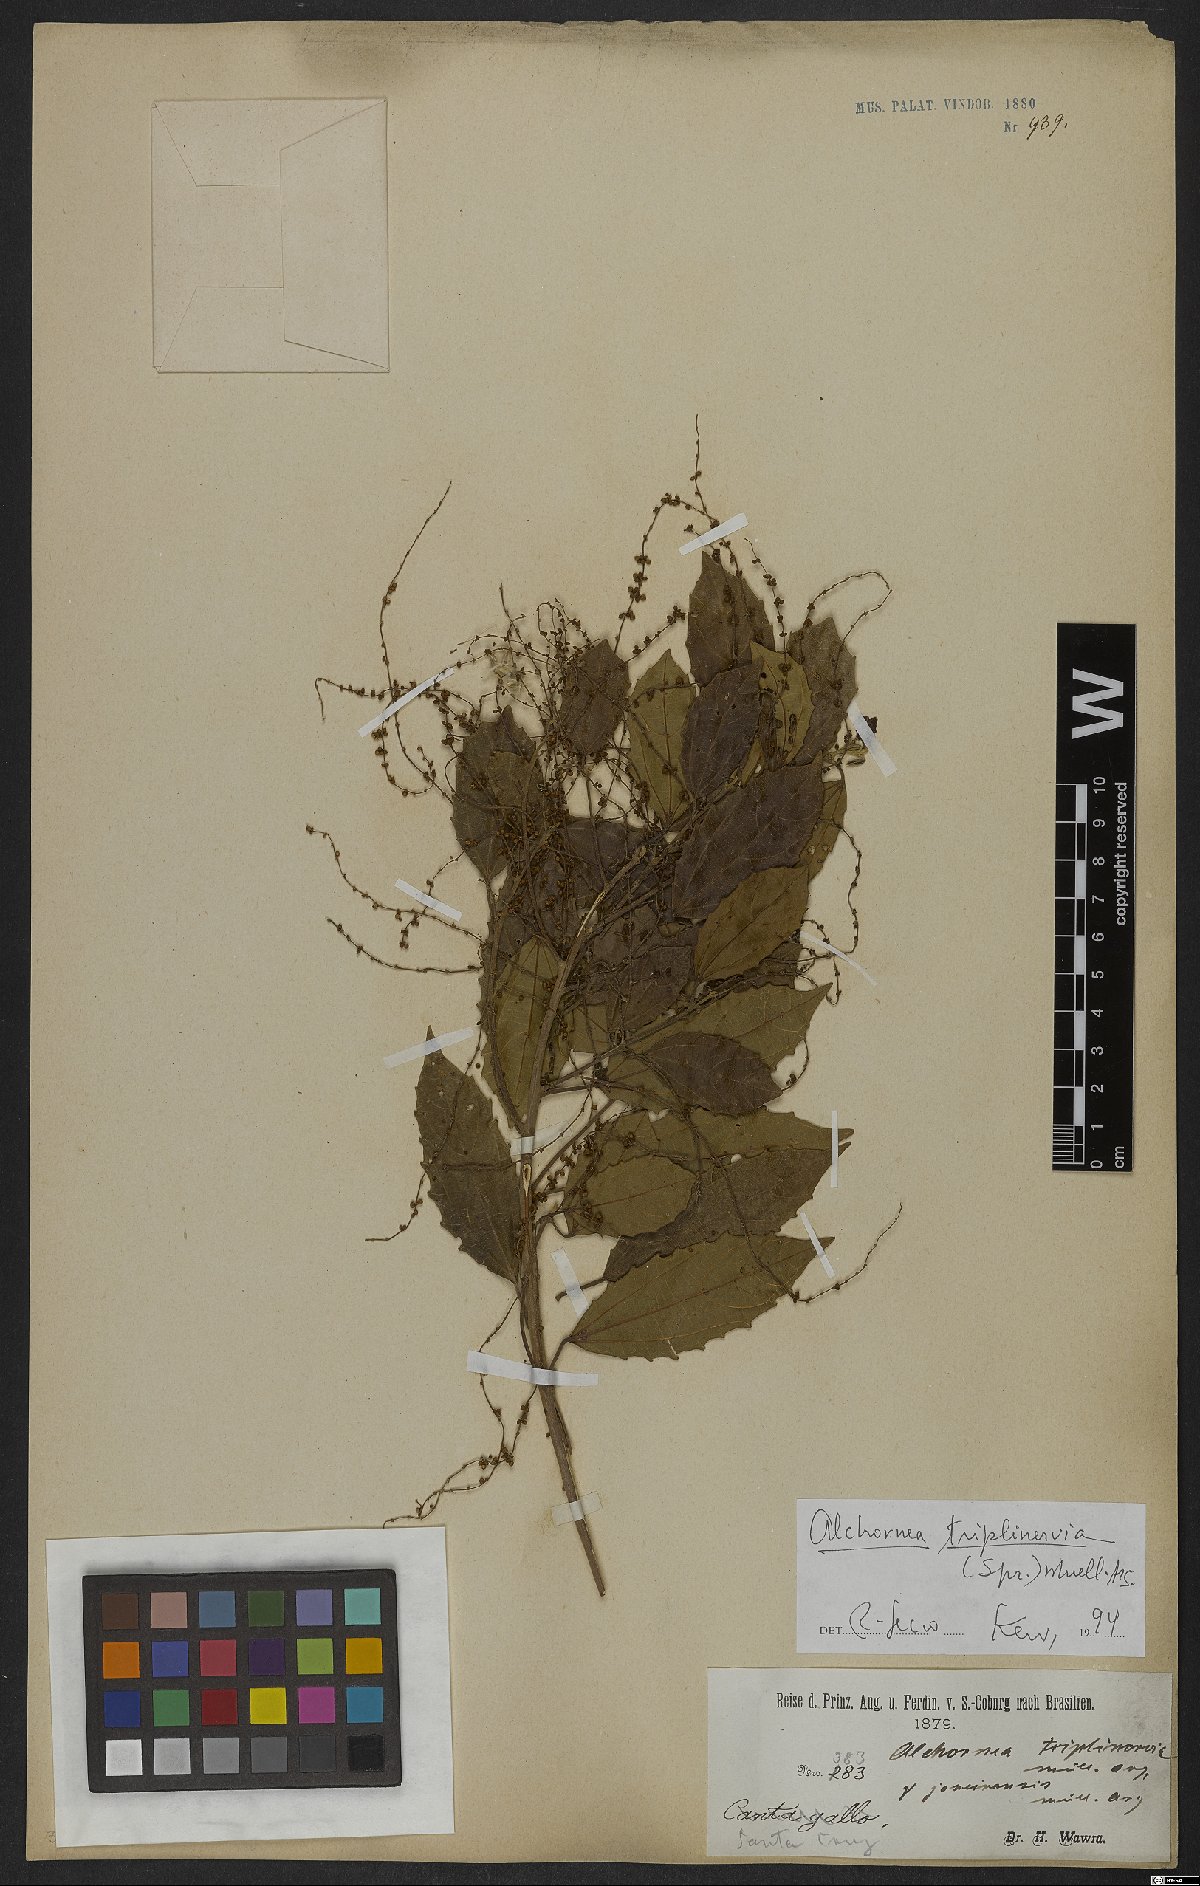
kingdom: Plantae
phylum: Tracheophyta
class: Magnoliopsida
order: Malpighiales
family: Euphorbiaceae
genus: Alchornea
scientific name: Alchornea triplinervia
